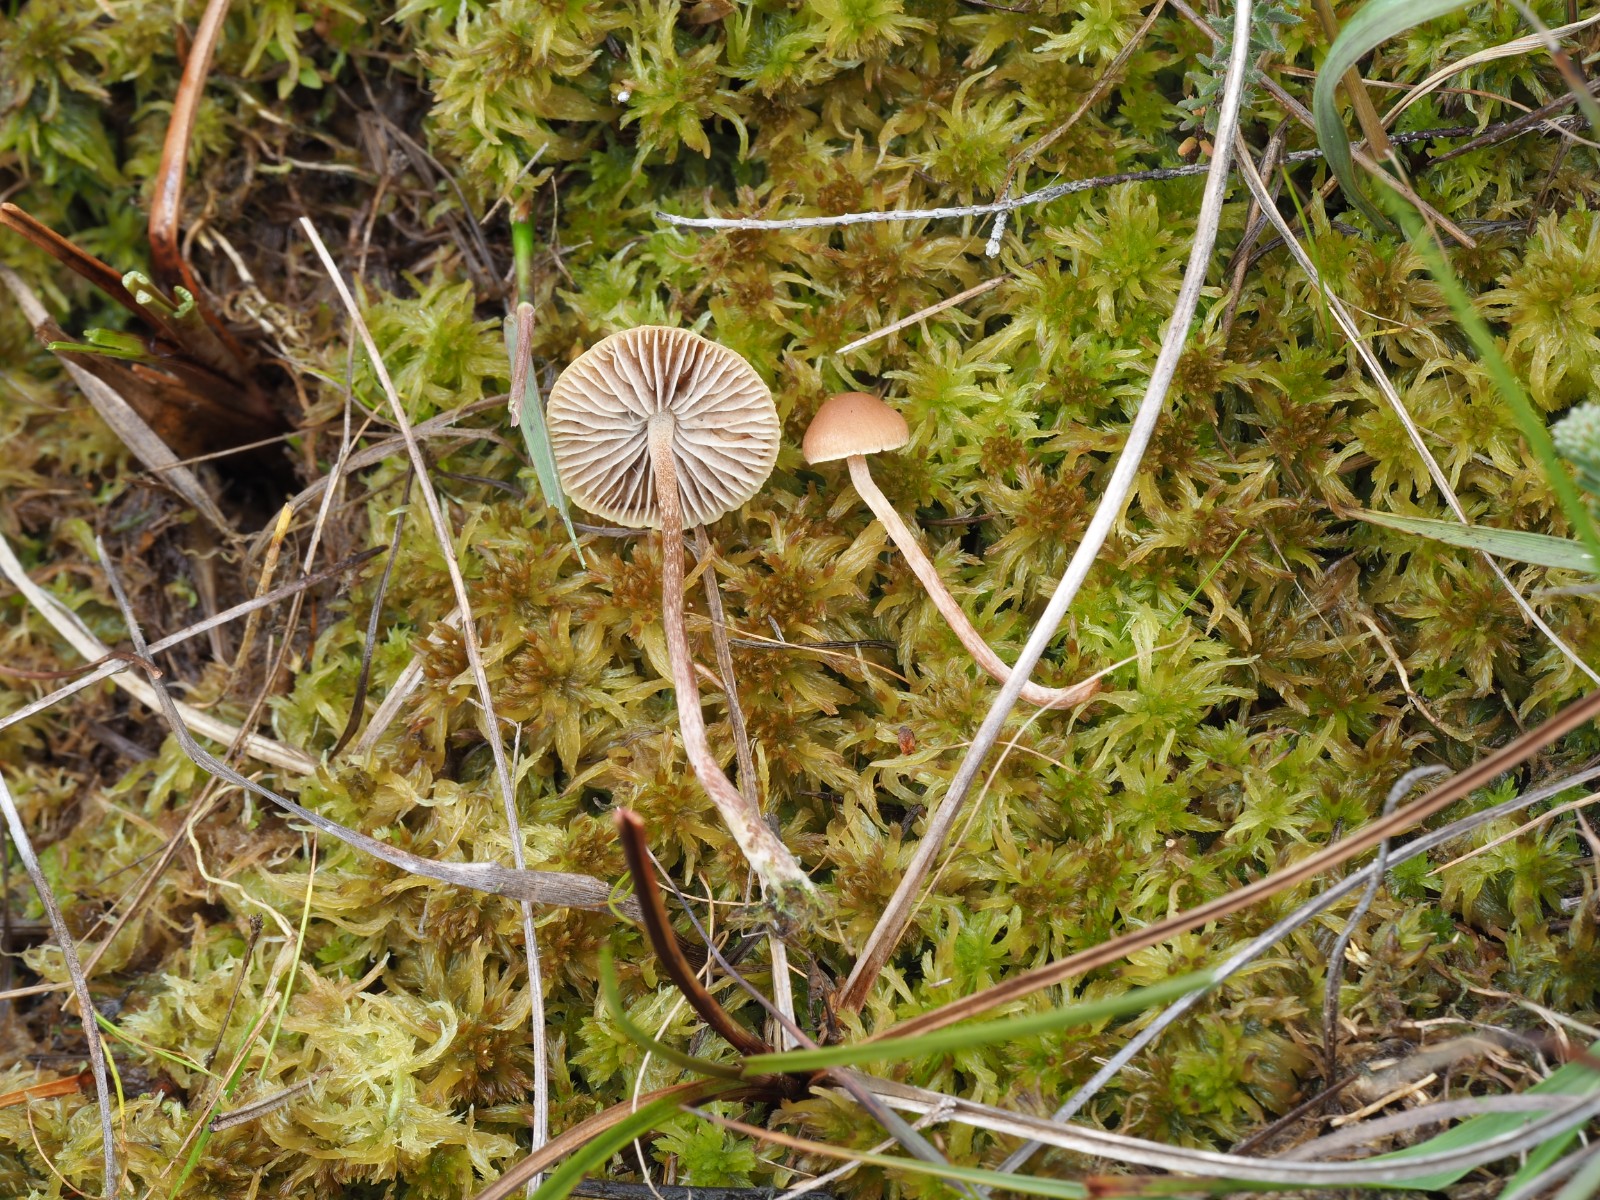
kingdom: Fungi
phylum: Basidiomycota
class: Agaricomycetes
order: Agaricales
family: Strophariaceae
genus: Bogbodia
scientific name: Bogbodia uda
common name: tørve-svovlhat
